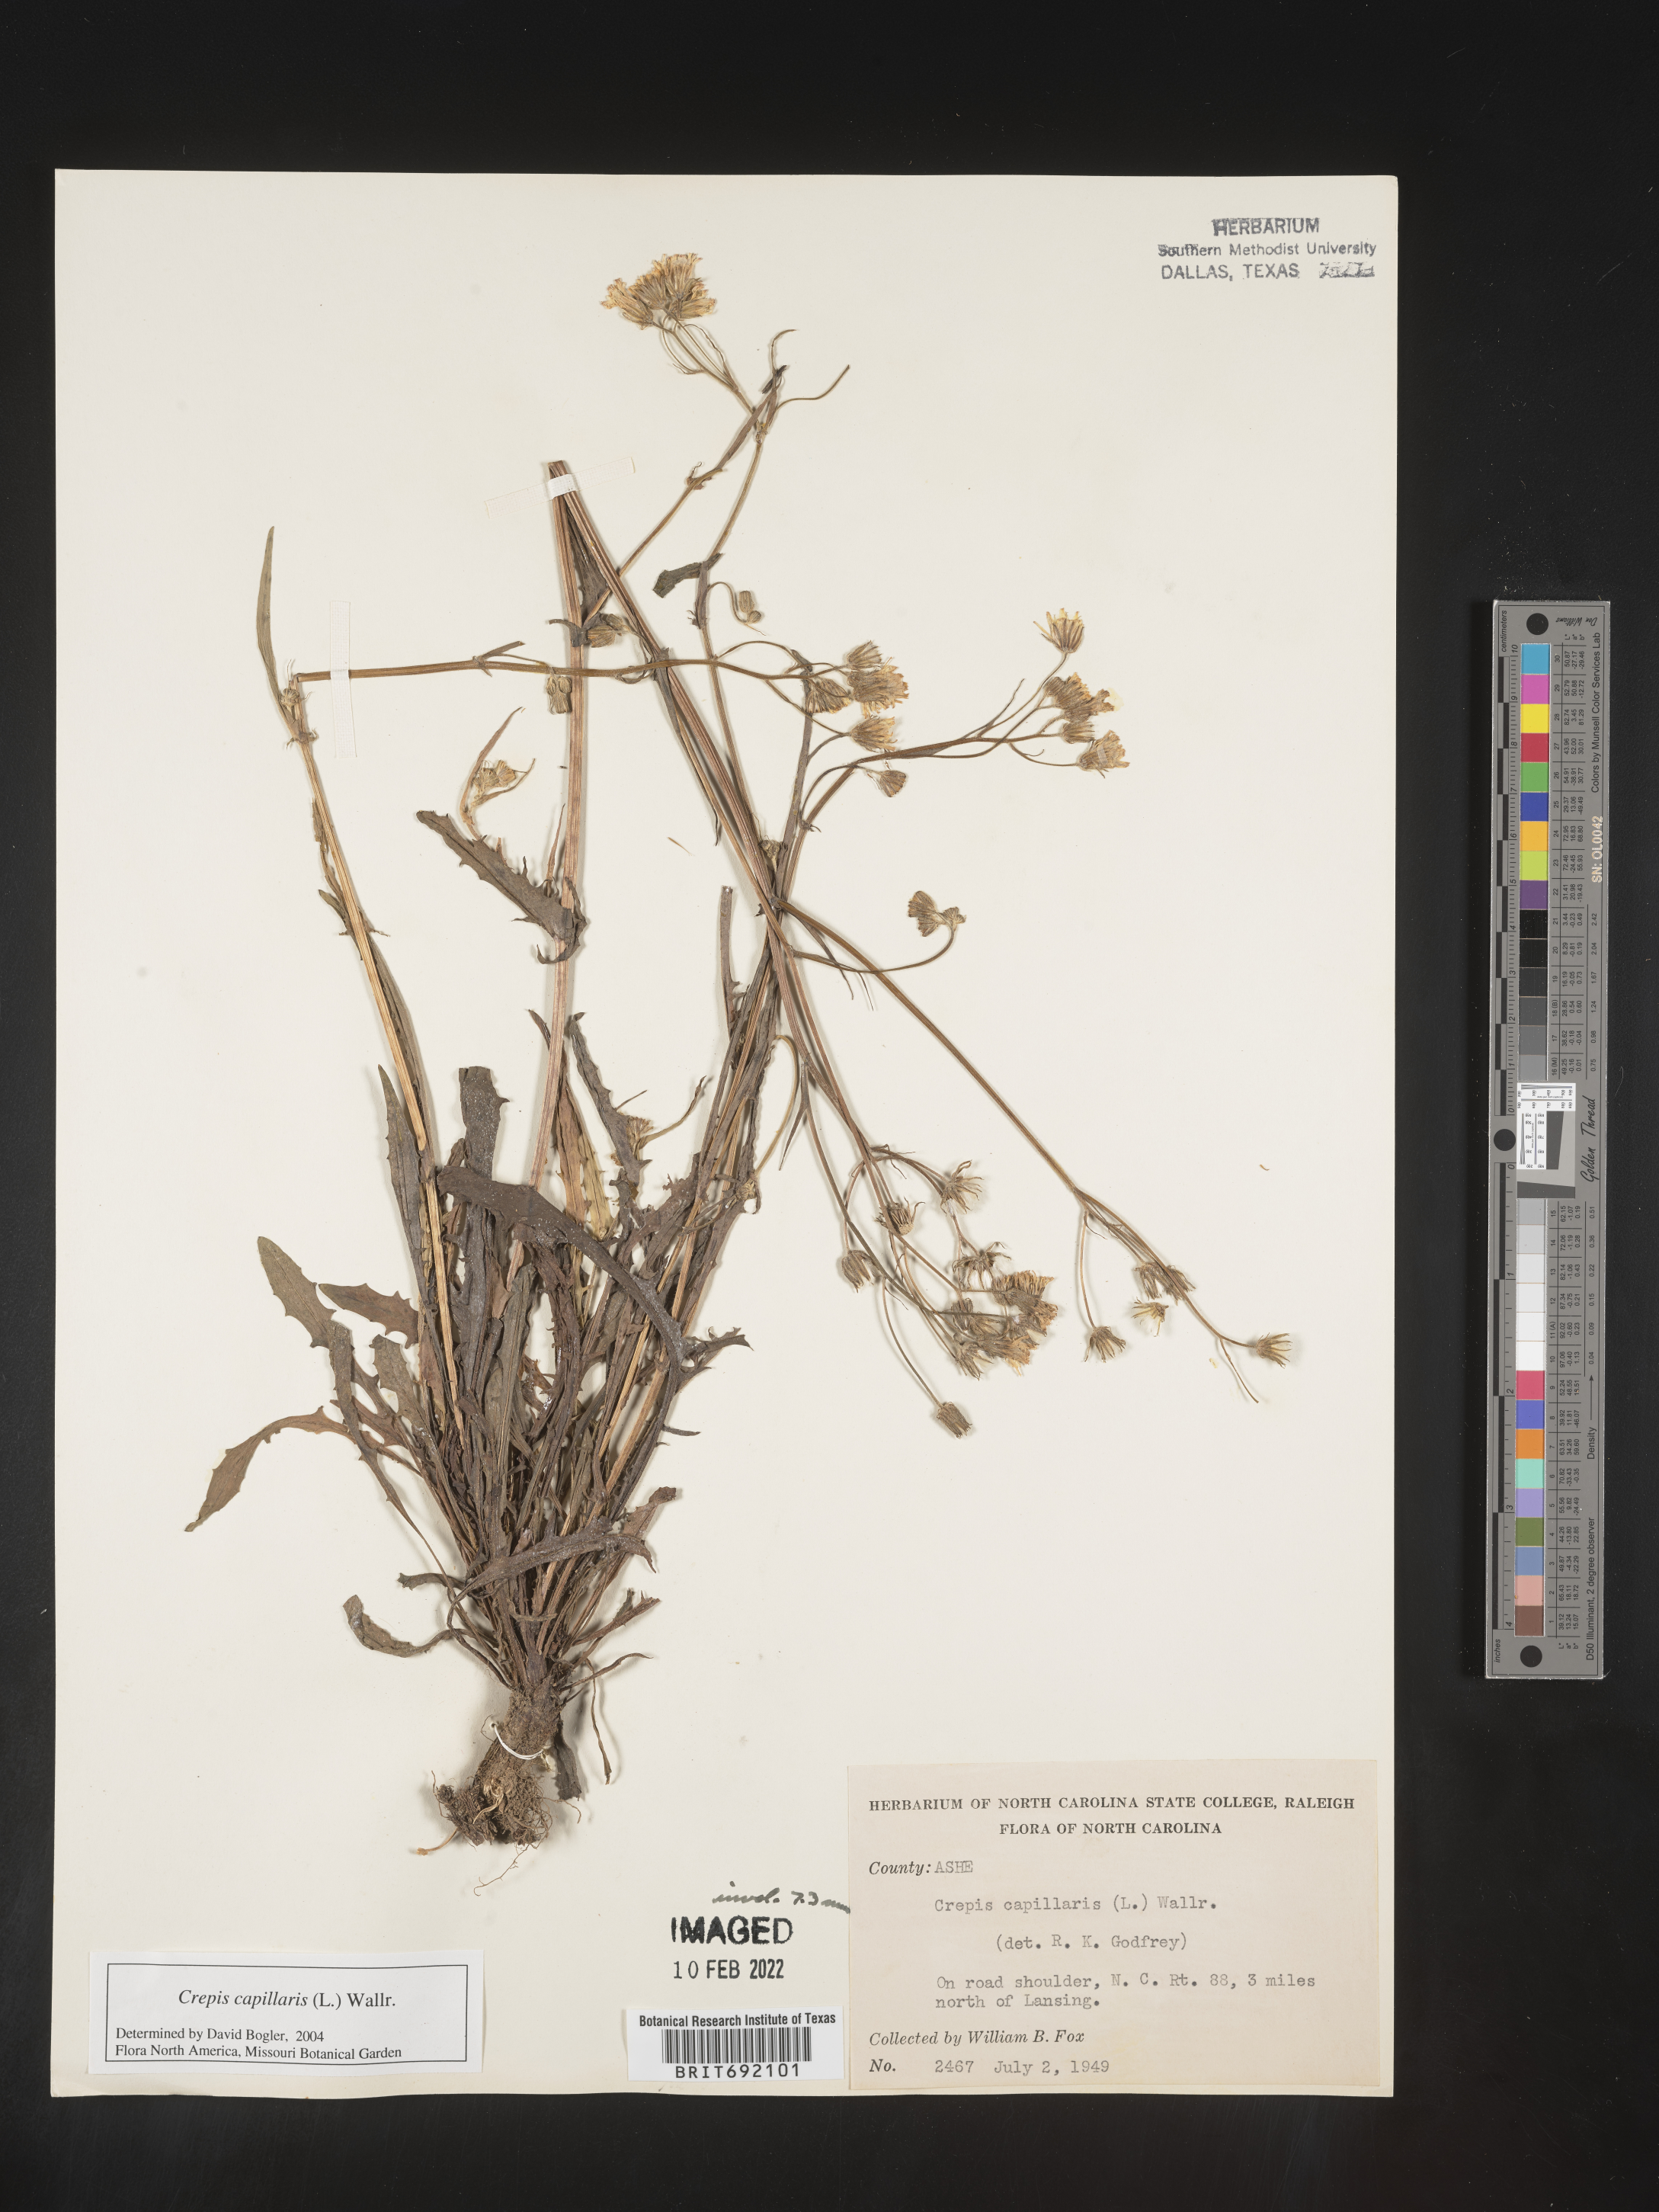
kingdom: Plantae
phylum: Tracheophyta
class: Magnoliopsida
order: Asterales
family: Asteraceae
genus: Crepis
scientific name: Crepis
